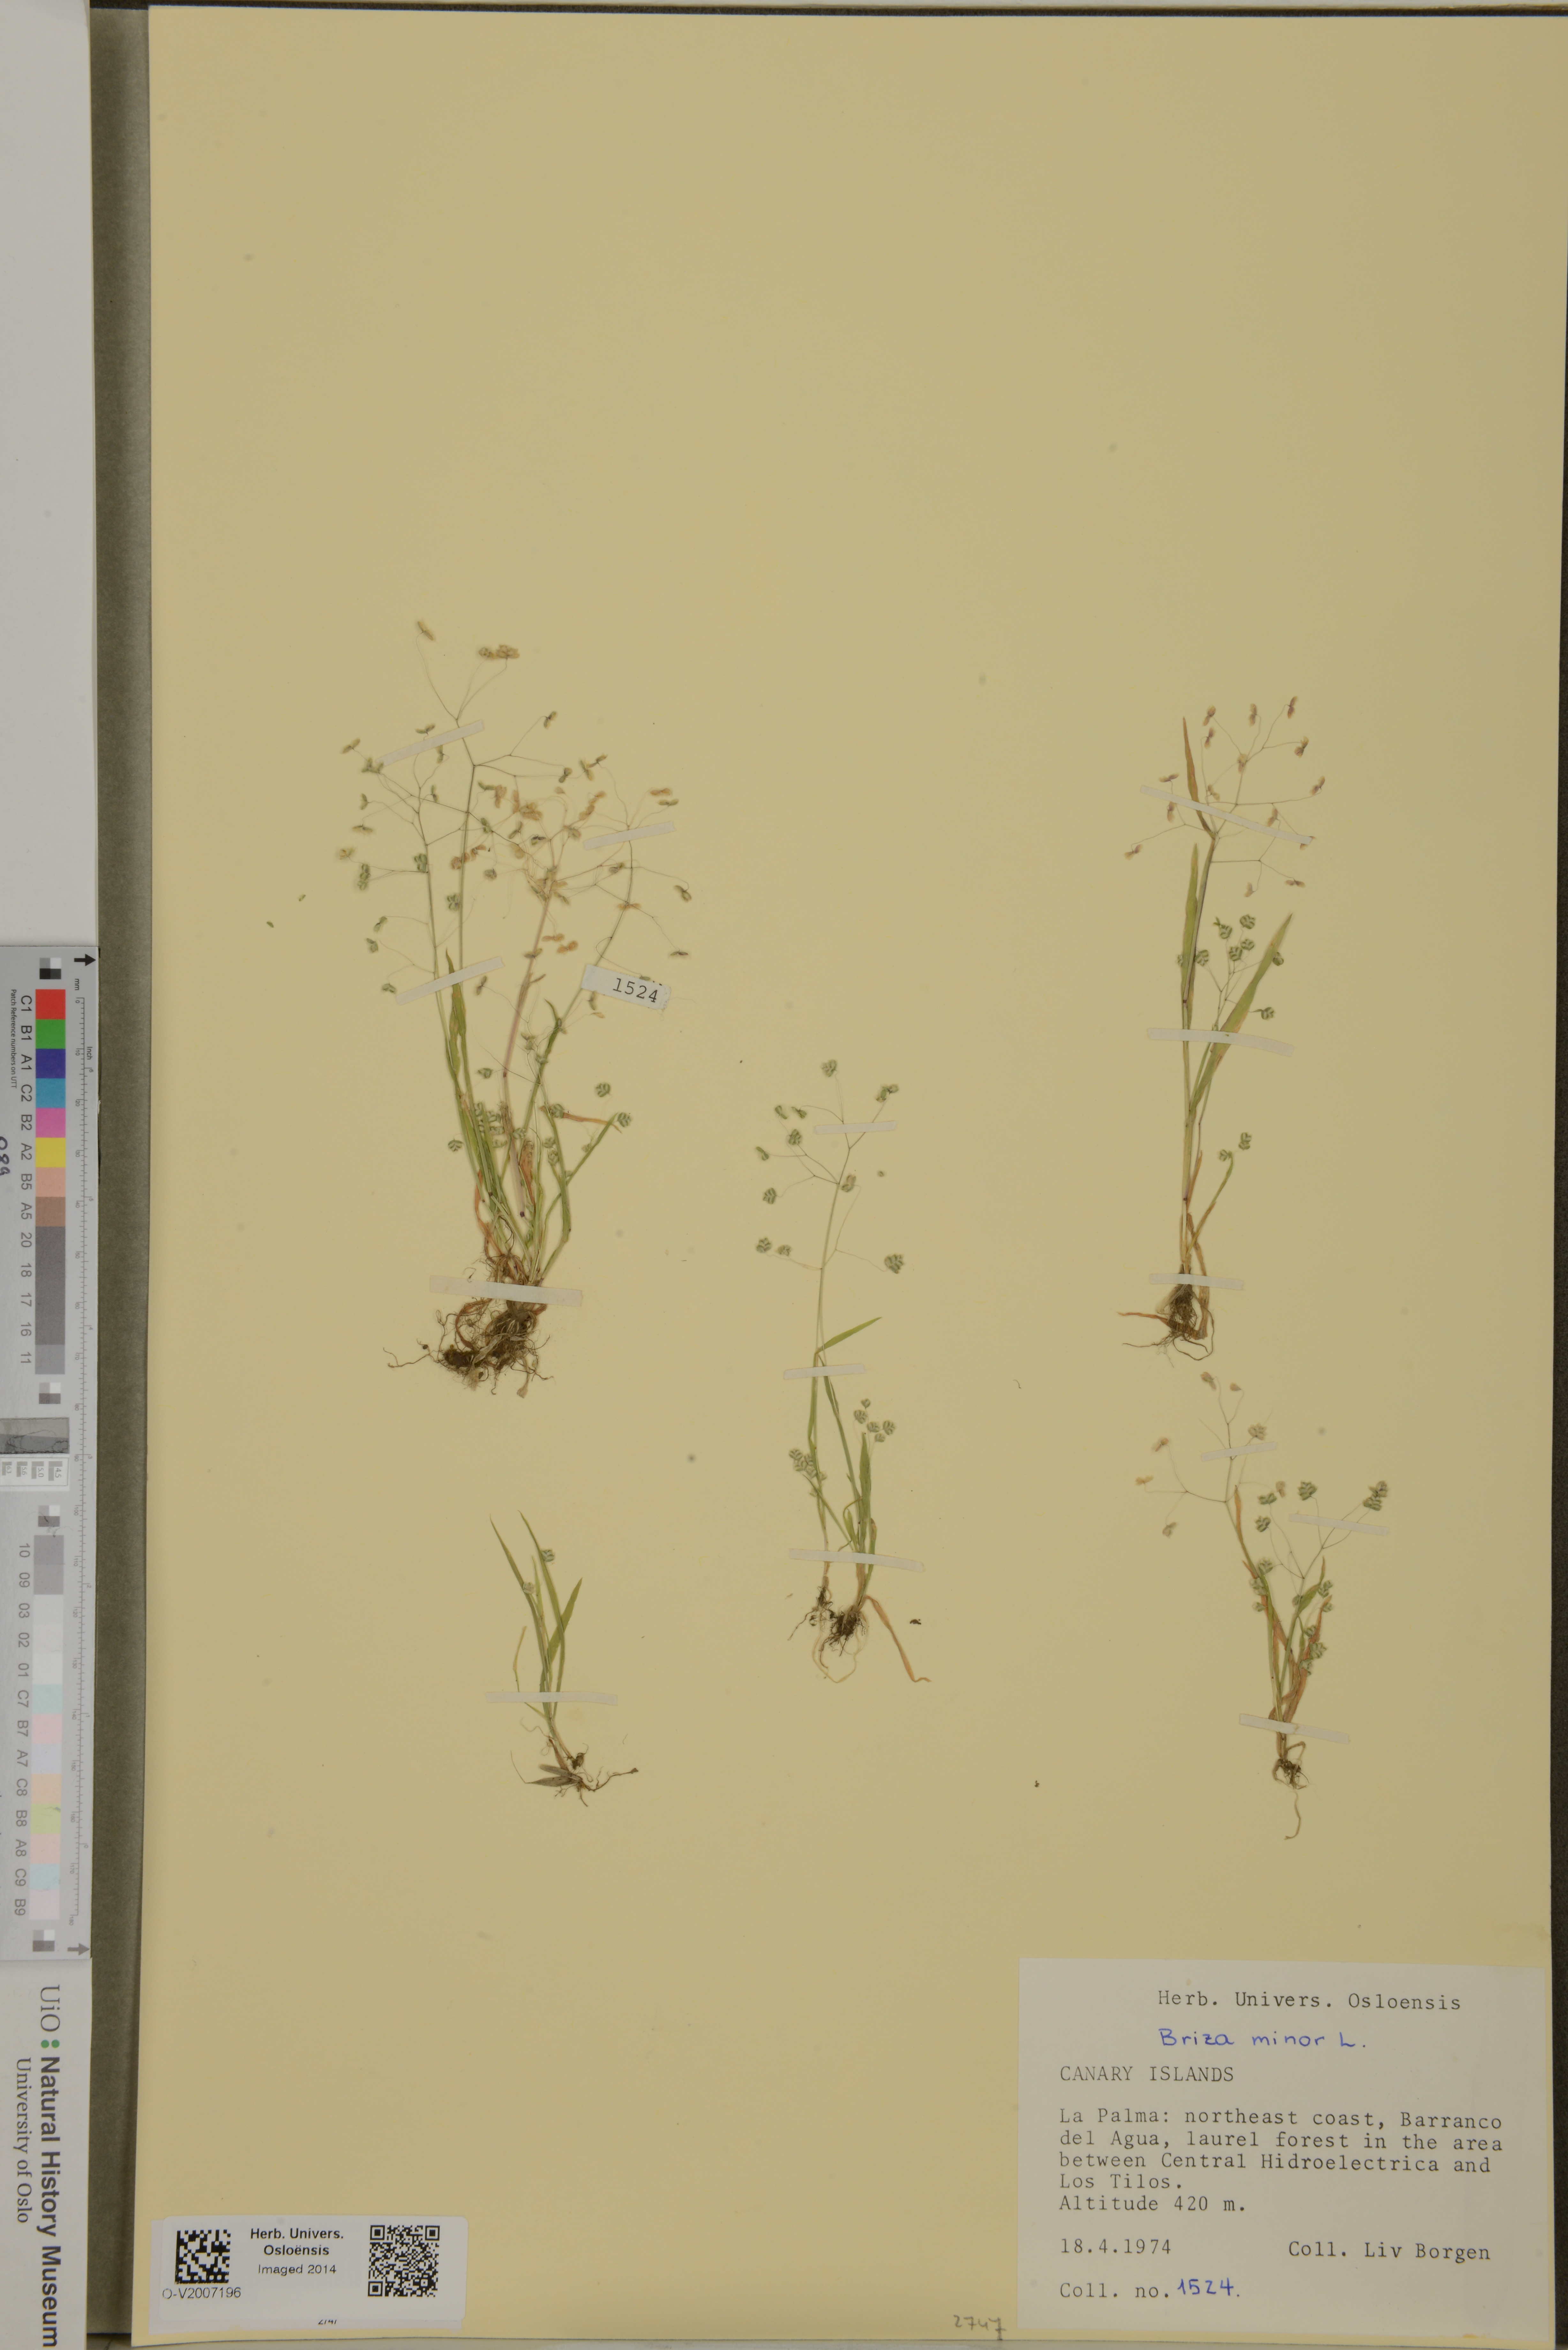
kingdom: Plantae
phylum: Tracheophyta
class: Liliopsida
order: Poales
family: Poaceae
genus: Briza
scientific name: Briza minor
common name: Lesser quaking-grass
